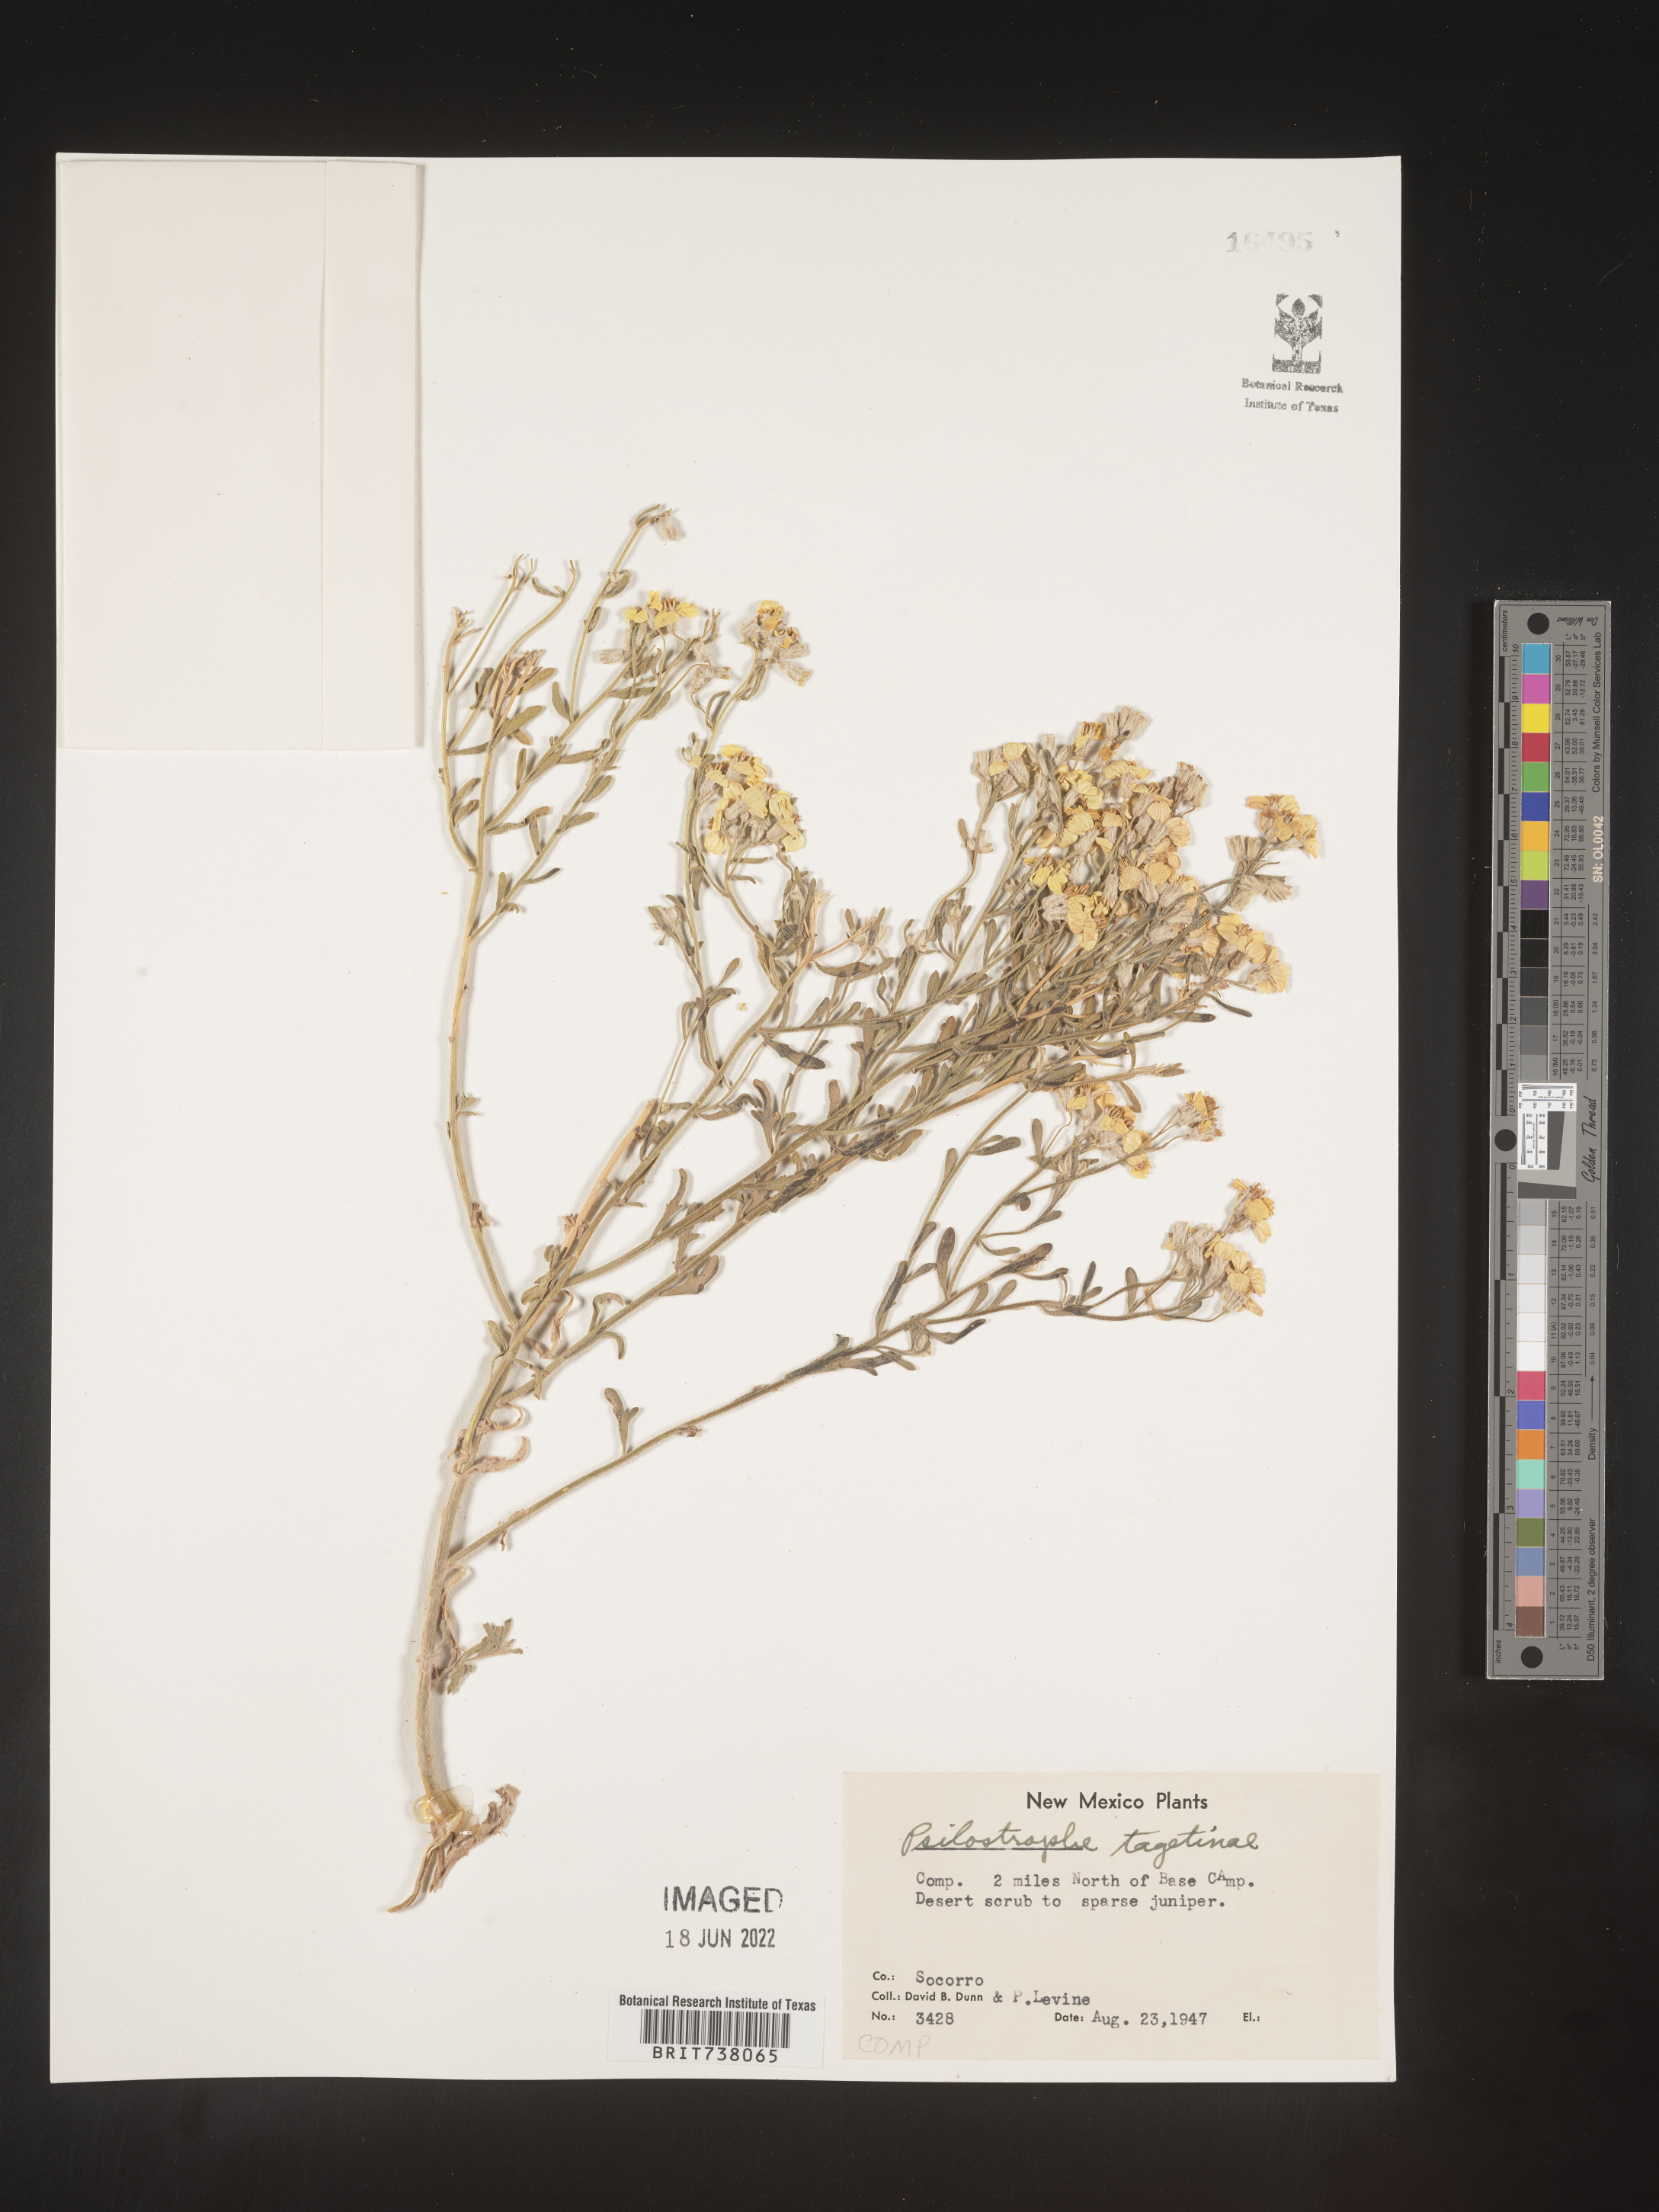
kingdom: Plantae
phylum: Tracheophyta
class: Magnoliopsida
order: Asterales
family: Asteraceae
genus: Psilostrophe
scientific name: Psilostrophe tagetina
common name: Marigold paper-flower
